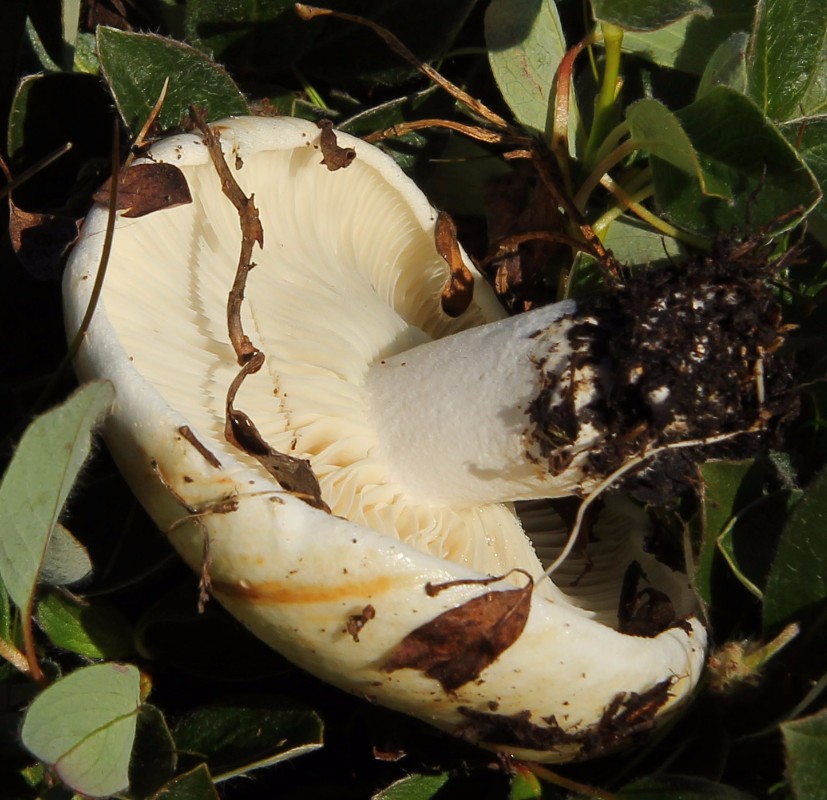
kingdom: Fungi
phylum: Basidiomycota
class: Agaricomycetes
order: Russulales
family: Russulaceae
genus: Russula
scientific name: Russula delica
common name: almindelig tragt-skørhat
